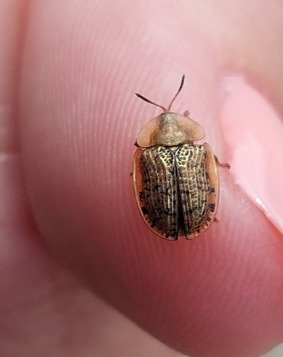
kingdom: Animalia
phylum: Arthropoda
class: Insecta
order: Coleoptera
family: Chrysomelidae
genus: Cassida
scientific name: Cassida nebulosa
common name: Plettet skjoldbille
